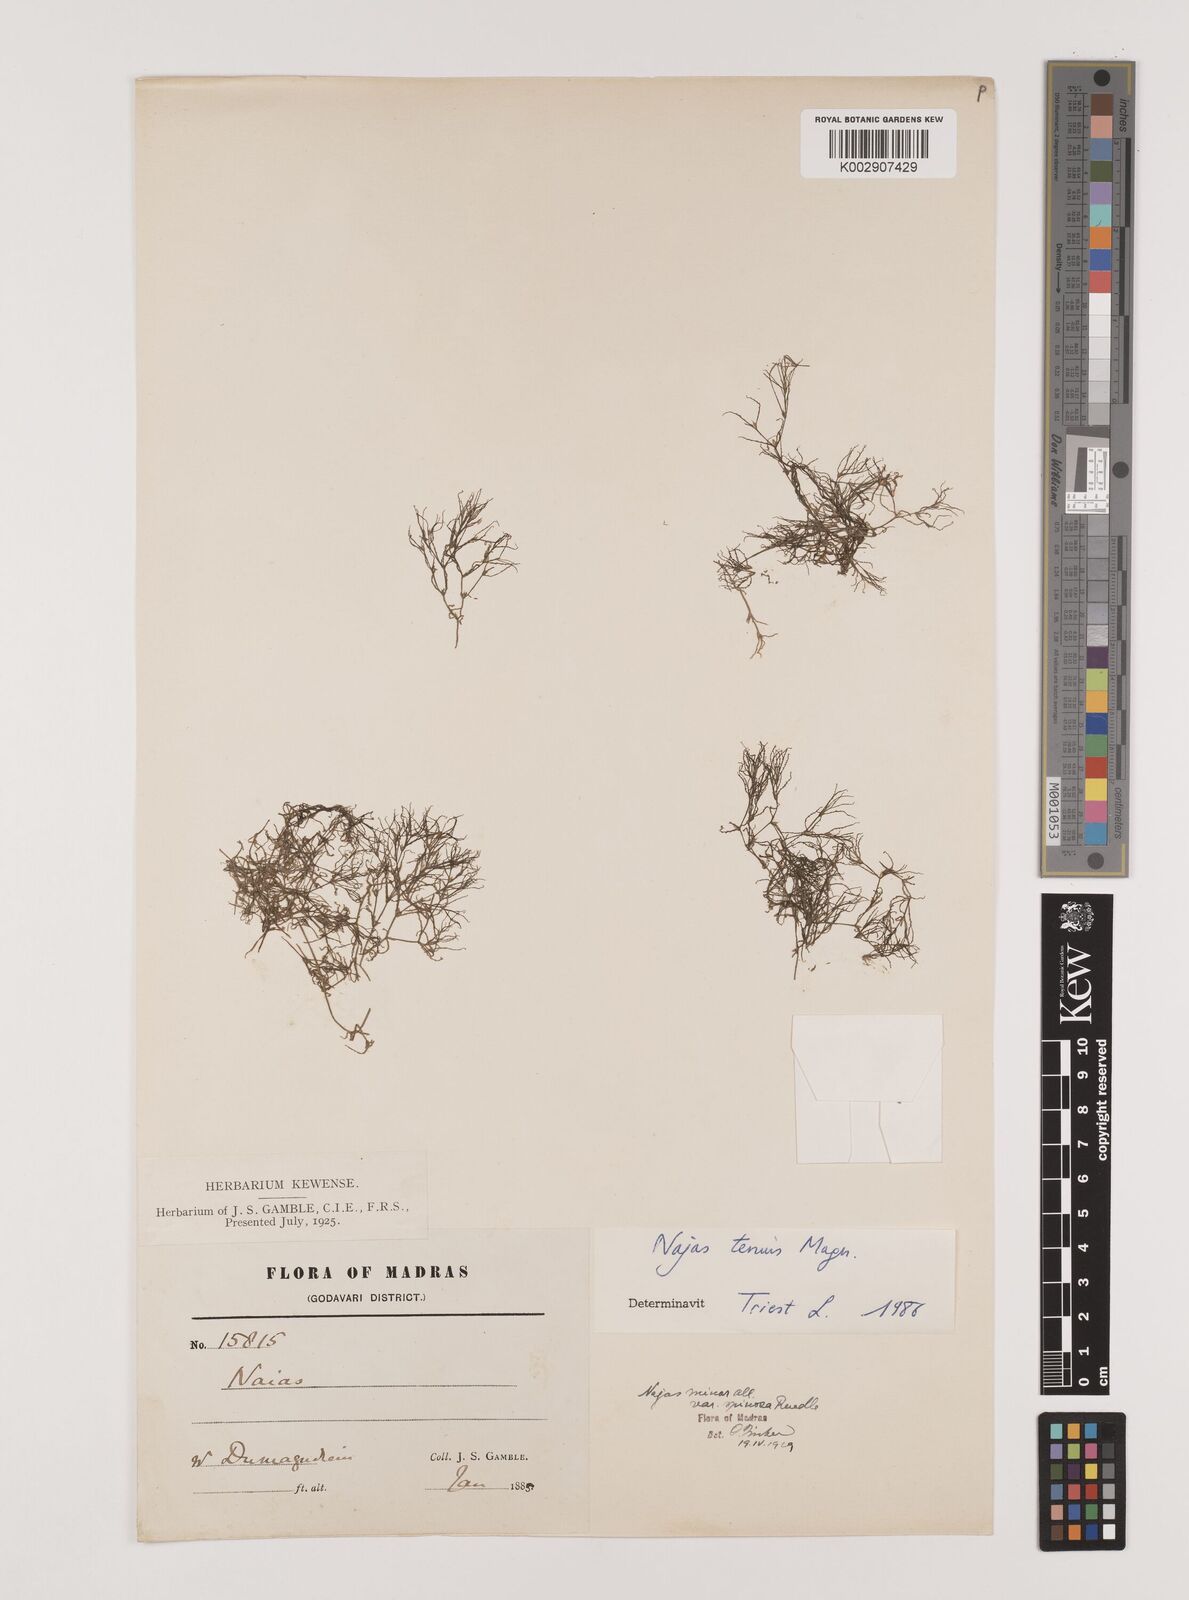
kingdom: Plantae
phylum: Tracheophyta
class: Liliopsida
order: Alismatales
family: Hydrocharitaceae
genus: Najas
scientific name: Najas indica
